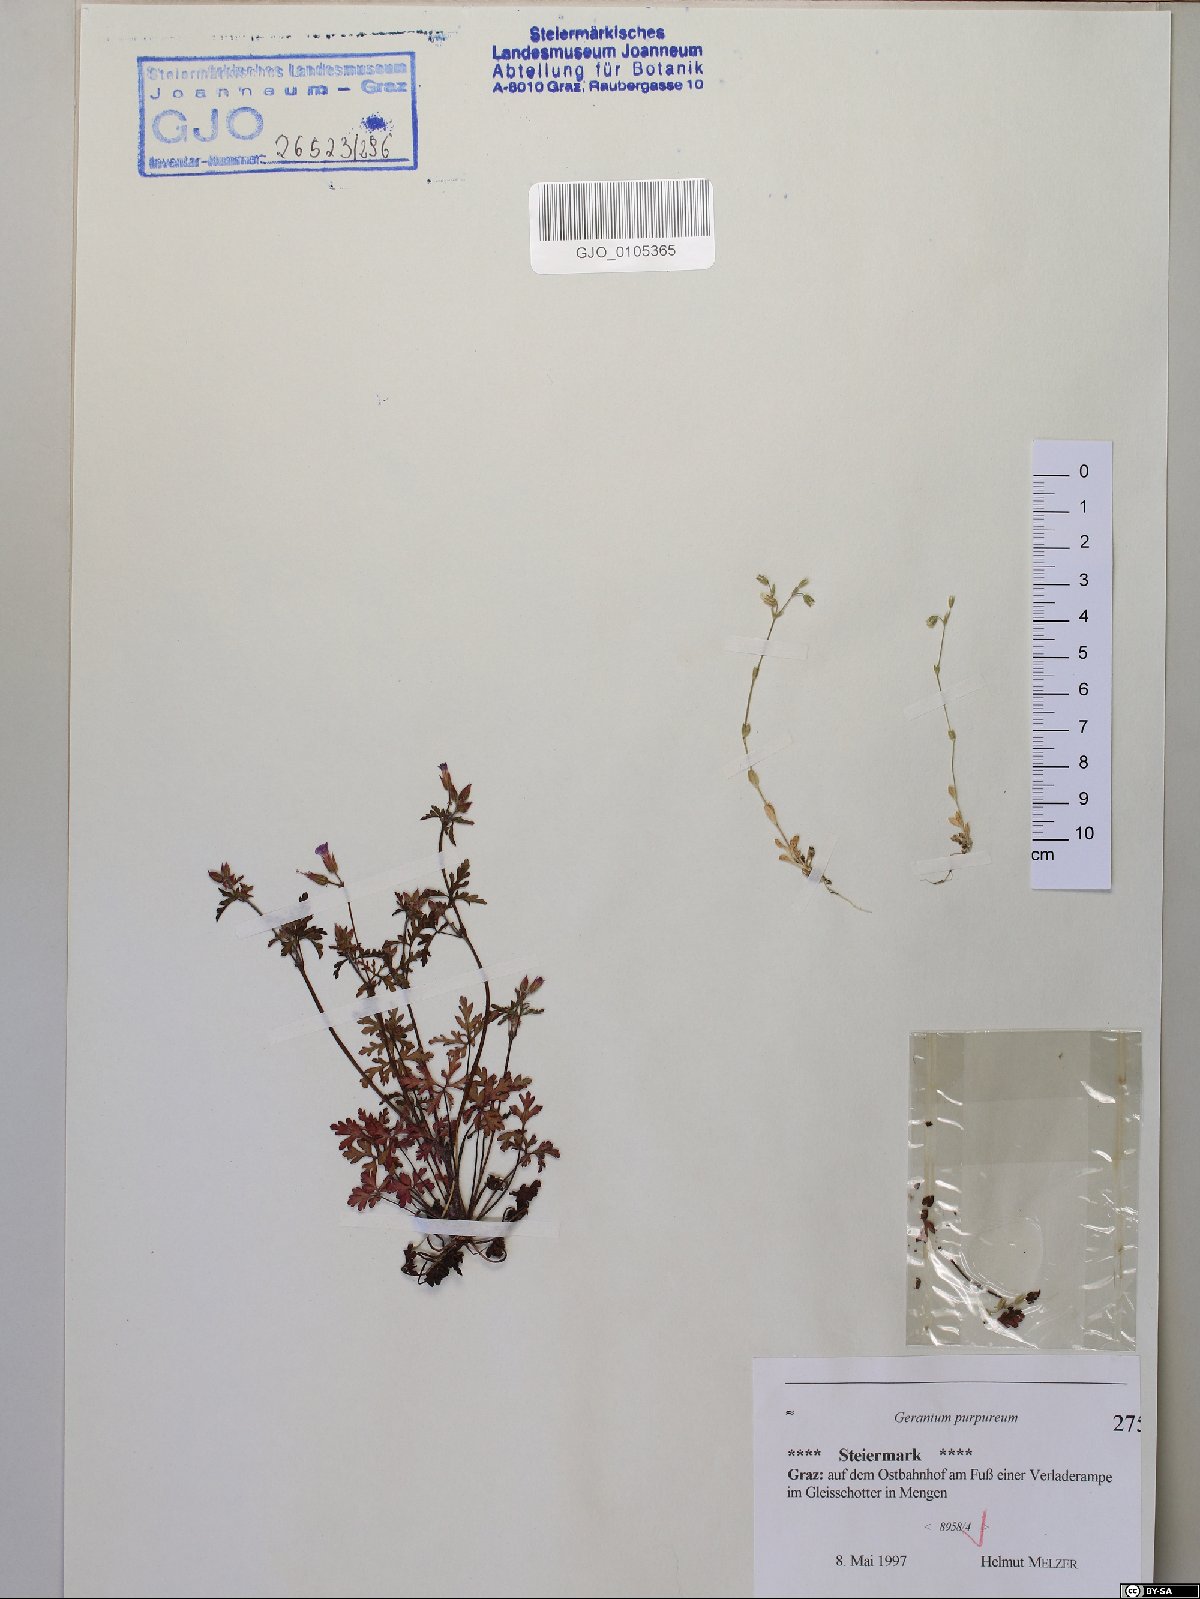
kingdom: Plantae
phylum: Tracheophyta
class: Magnoliopsida
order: Geraniales
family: Geraniaceae
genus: Geranium
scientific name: Geranium purpureum
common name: Little-robin
